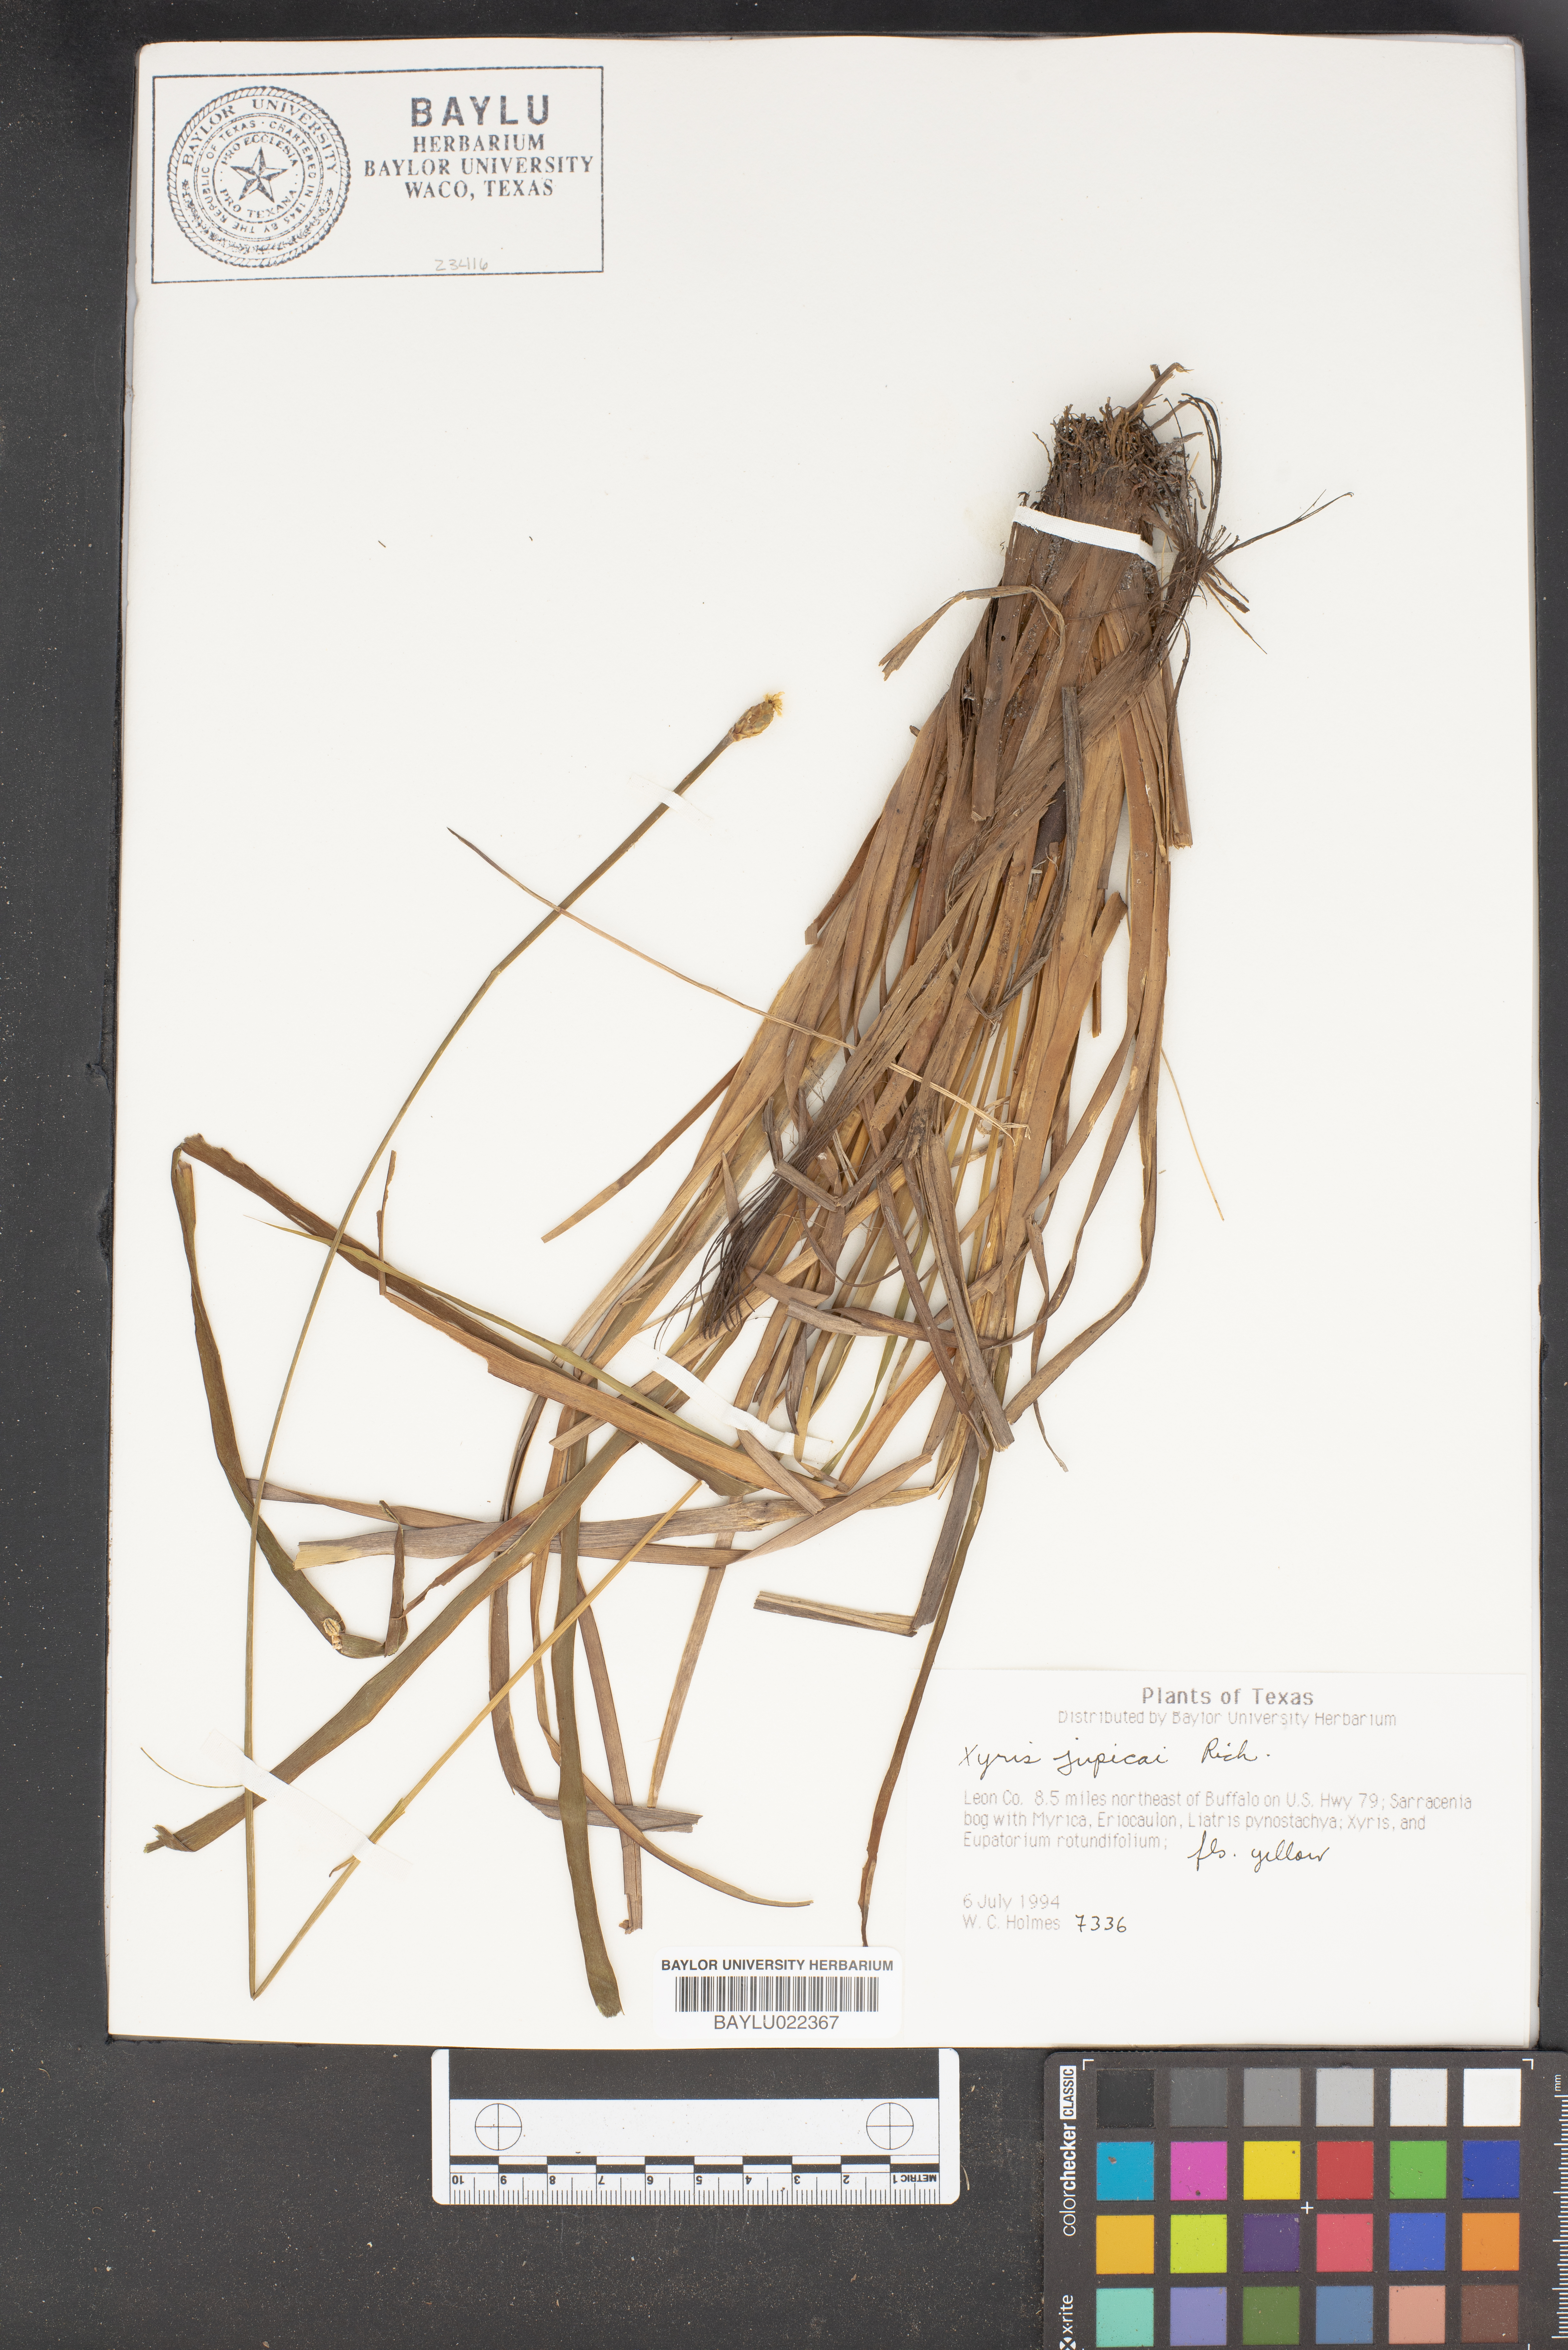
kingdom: Plantae
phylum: Tracheophyta
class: Liliopsida
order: Poales
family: Xyridaceae
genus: Xyris
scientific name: Xyris jupicai
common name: Richard's yelloweyed grass
